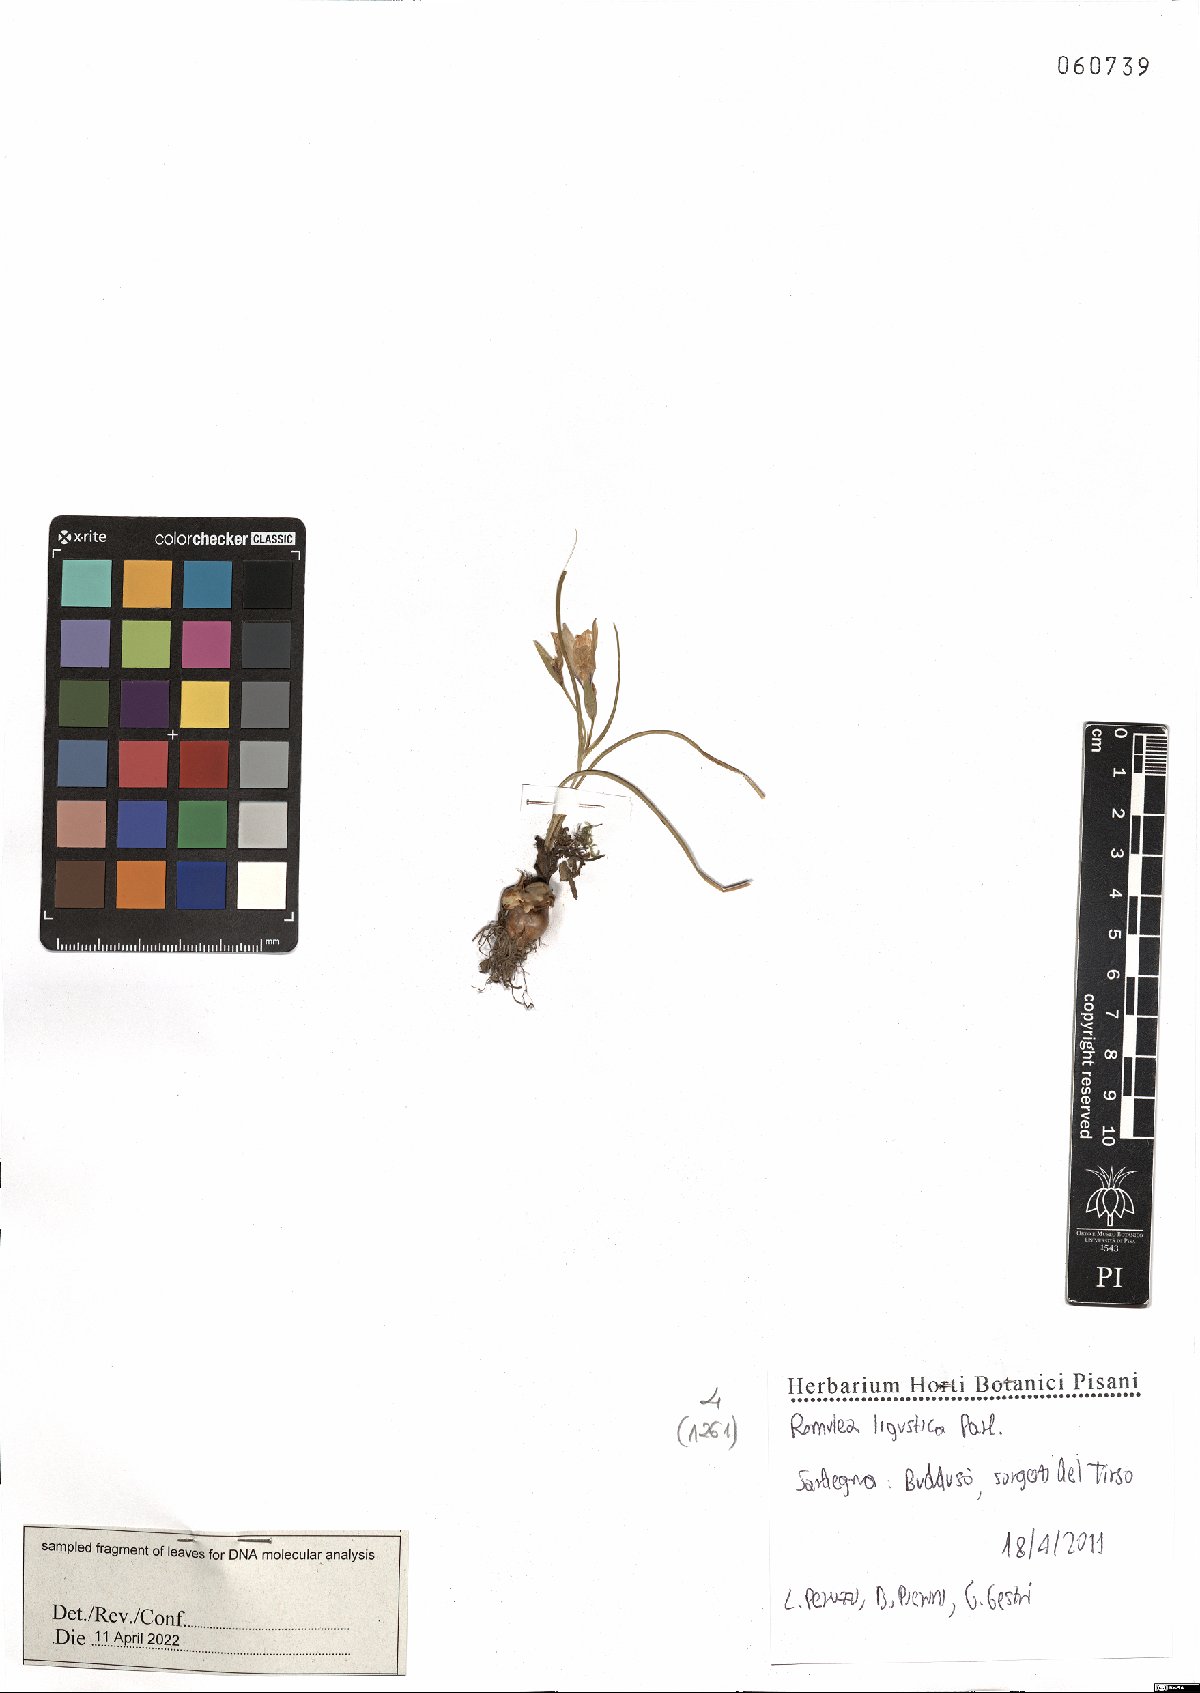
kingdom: Plantae
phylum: Tracheophyta
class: Liliopsida
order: Asparagales
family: Iridaceae
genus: Romulea
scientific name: Romulea ligustica
